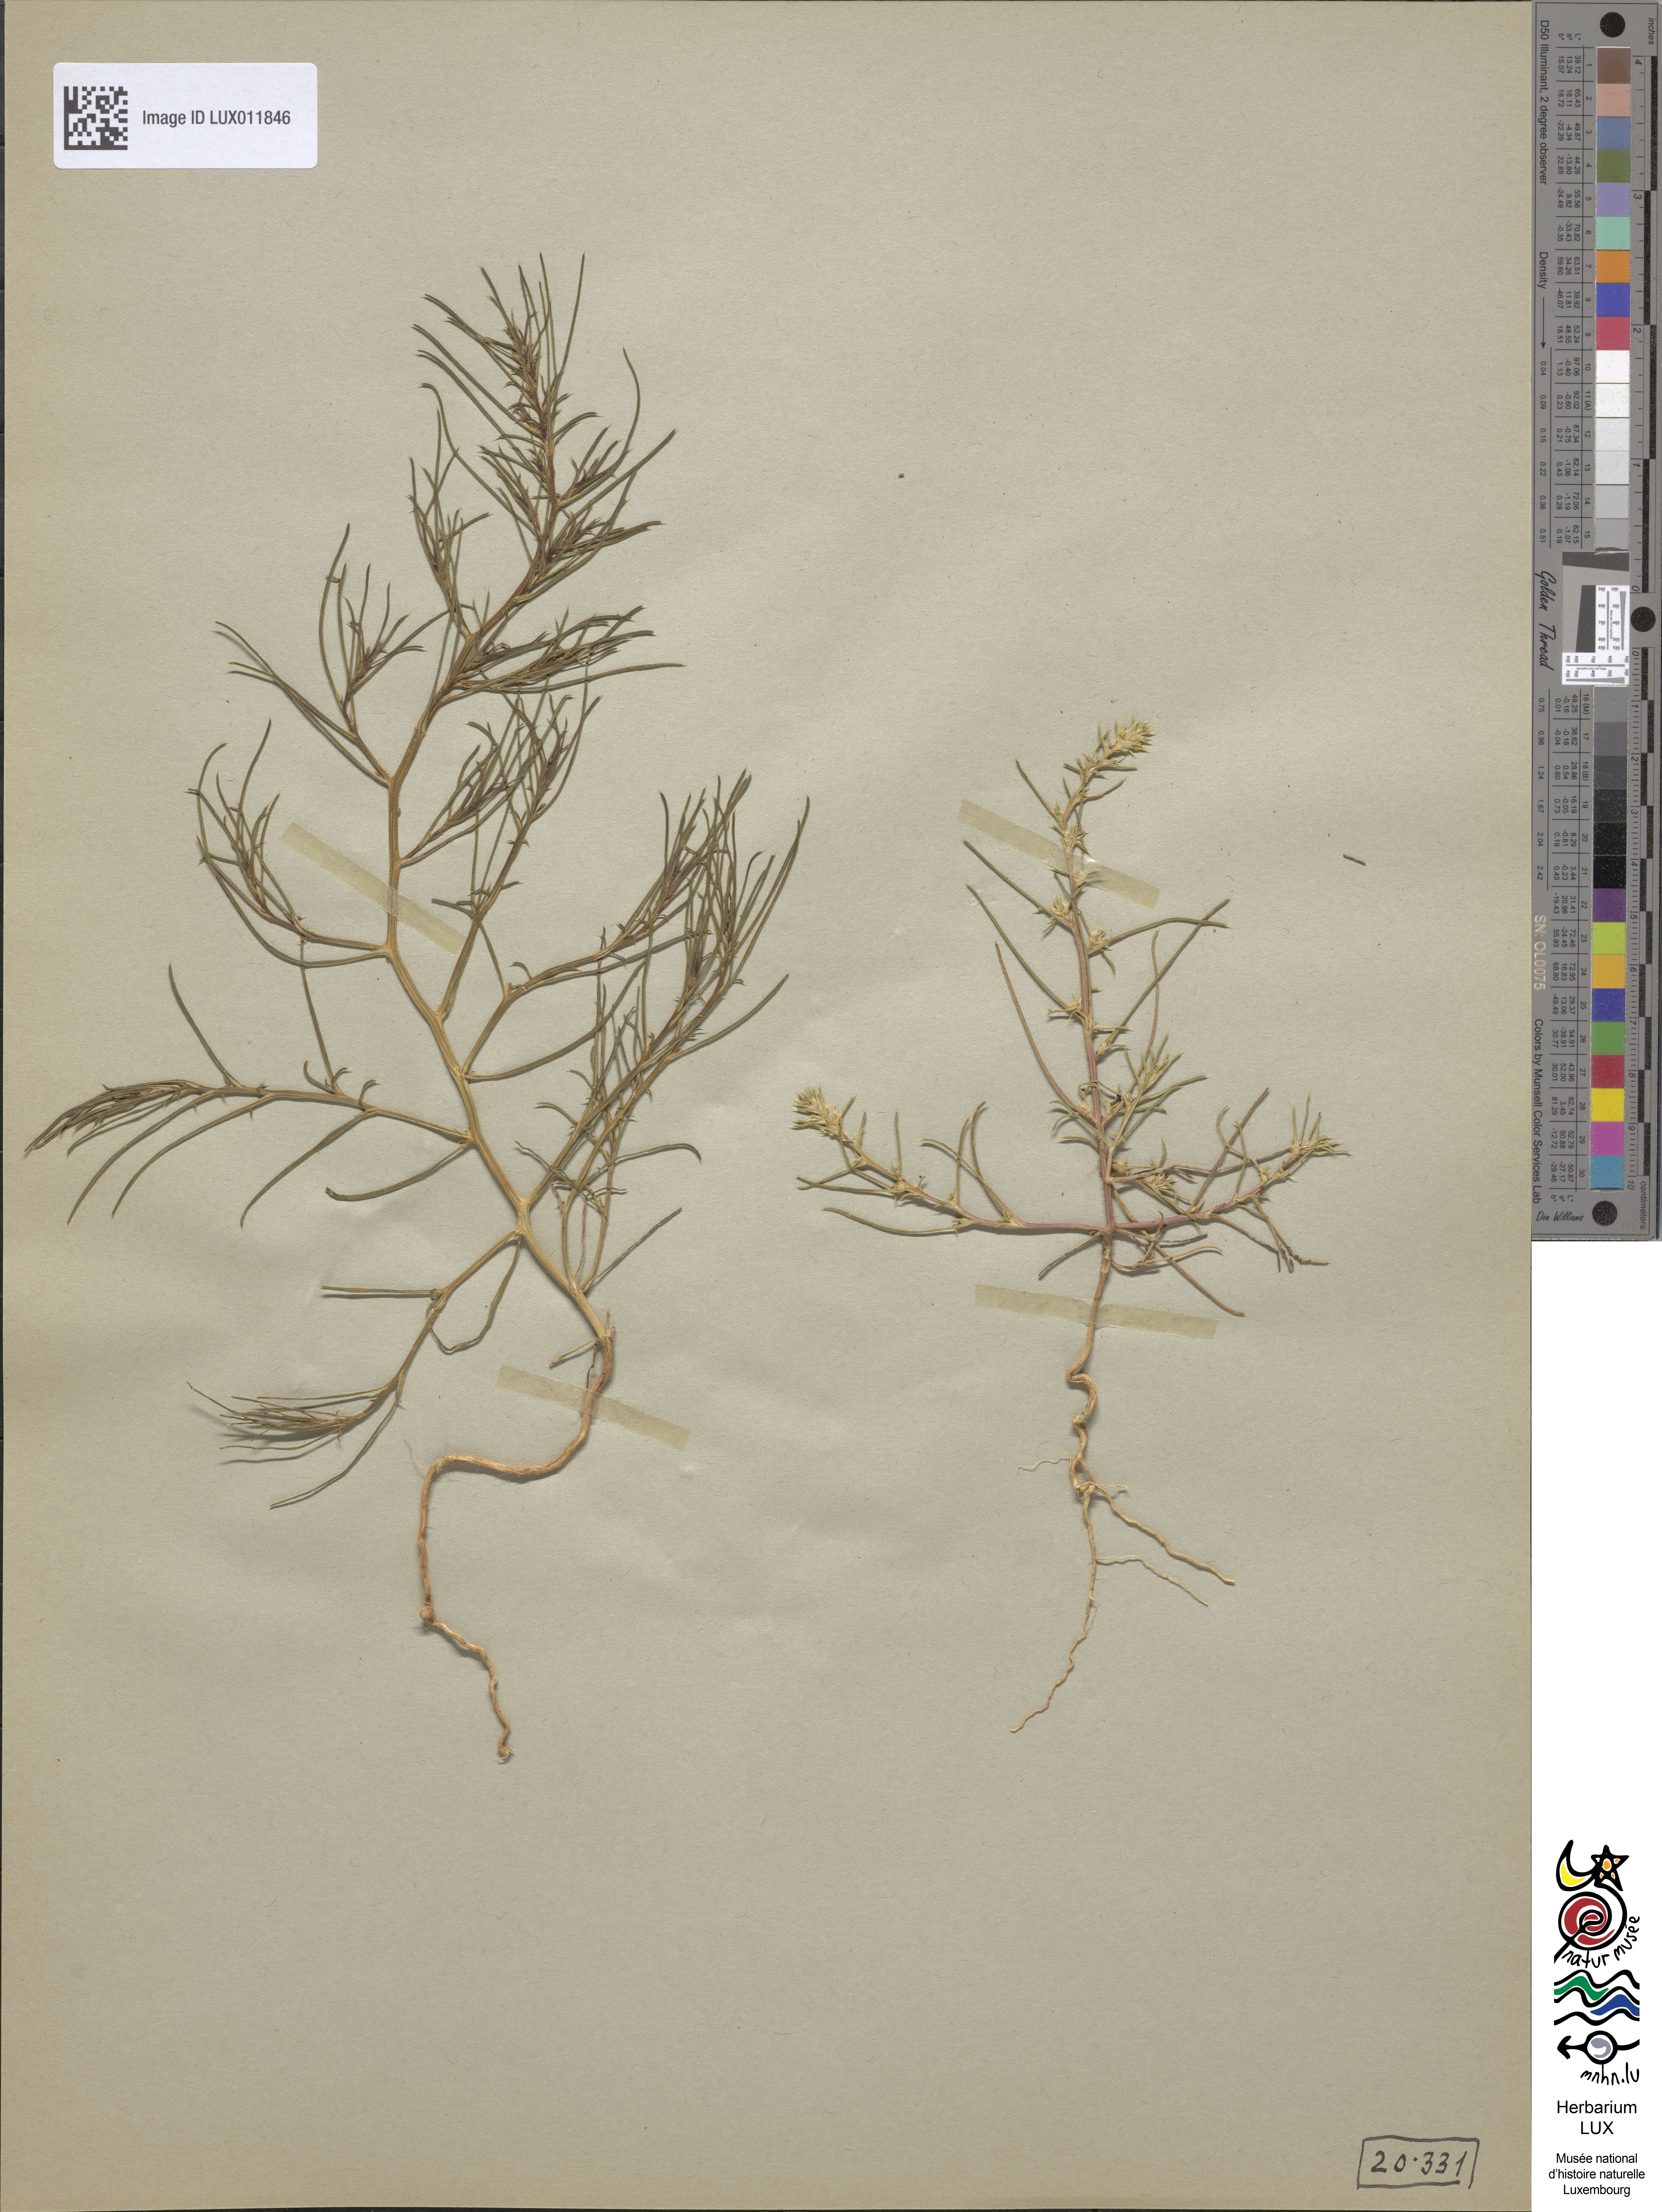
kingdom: Plantae
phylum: Tracheophyta
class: Magnoliopsida
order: Caryophyllales
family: Amaranthaceae
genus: Salsola
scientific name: Salsola tragus
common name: Prickly russian thistle
